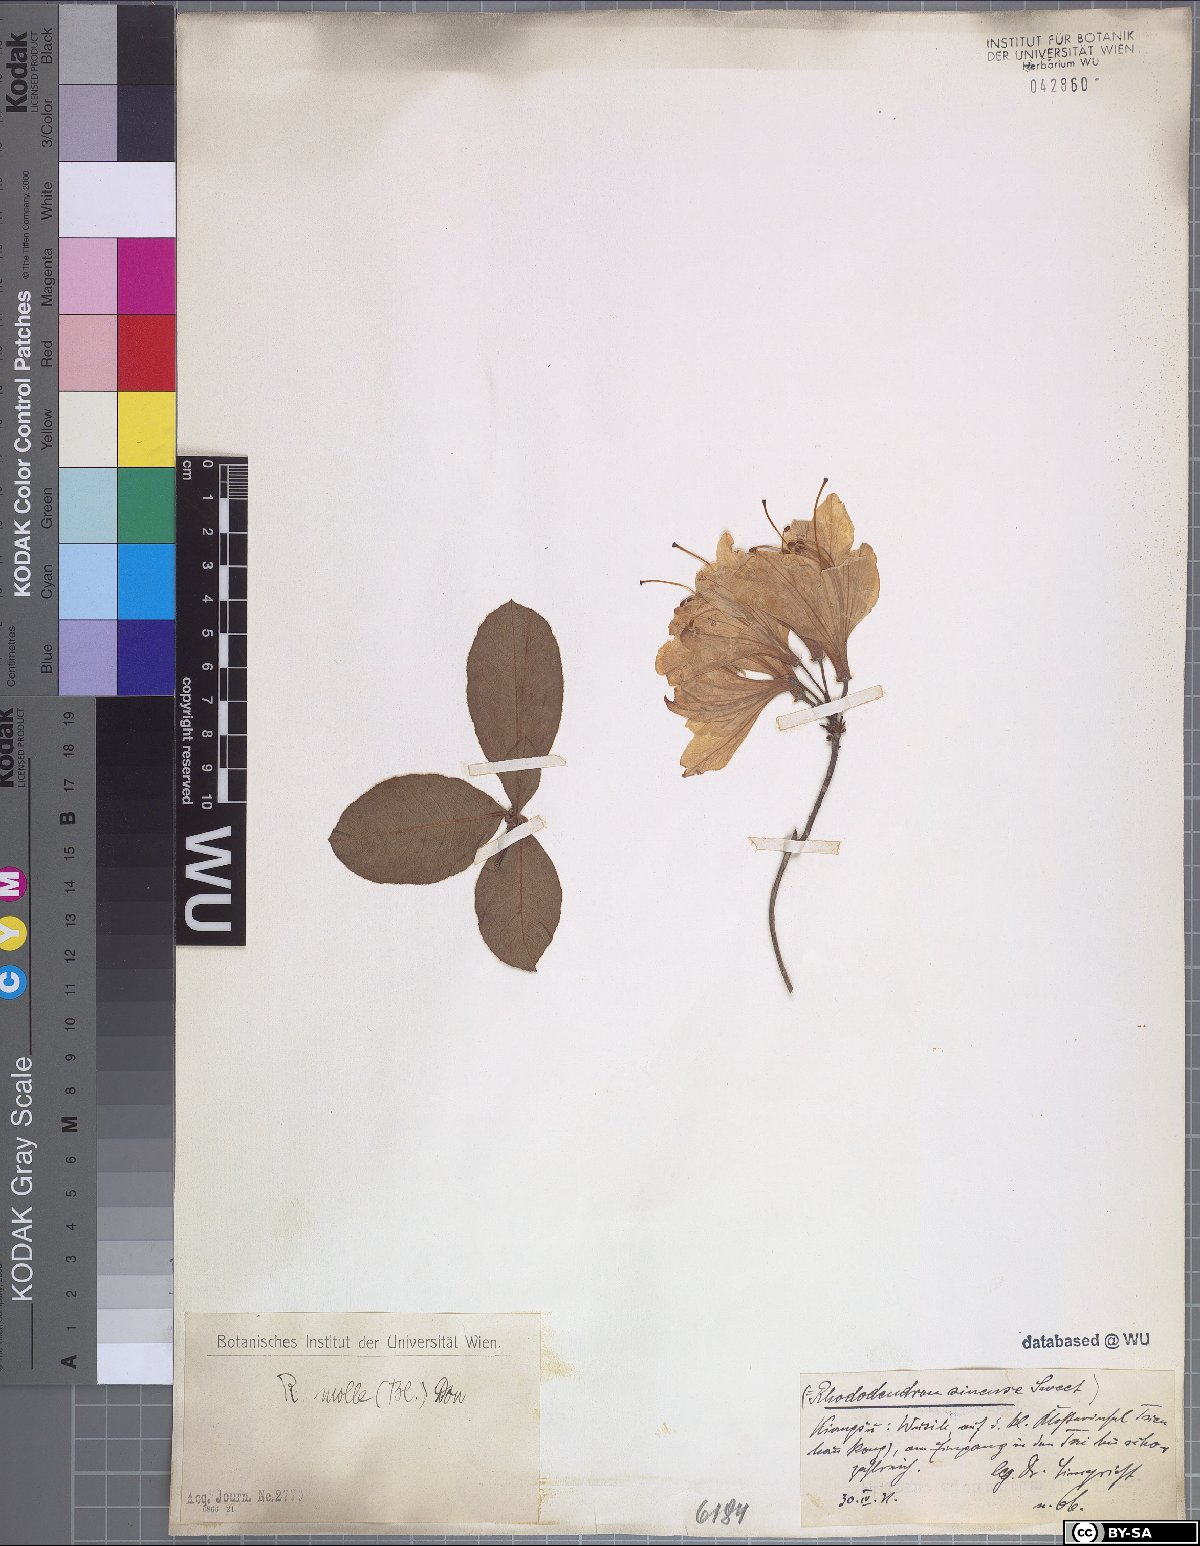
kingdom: Plantae
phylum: Tracheophyta
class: Magnoliopsida
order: Ericales
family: Ericaceae
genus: Rhododendron
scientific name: Rhododendron molle
